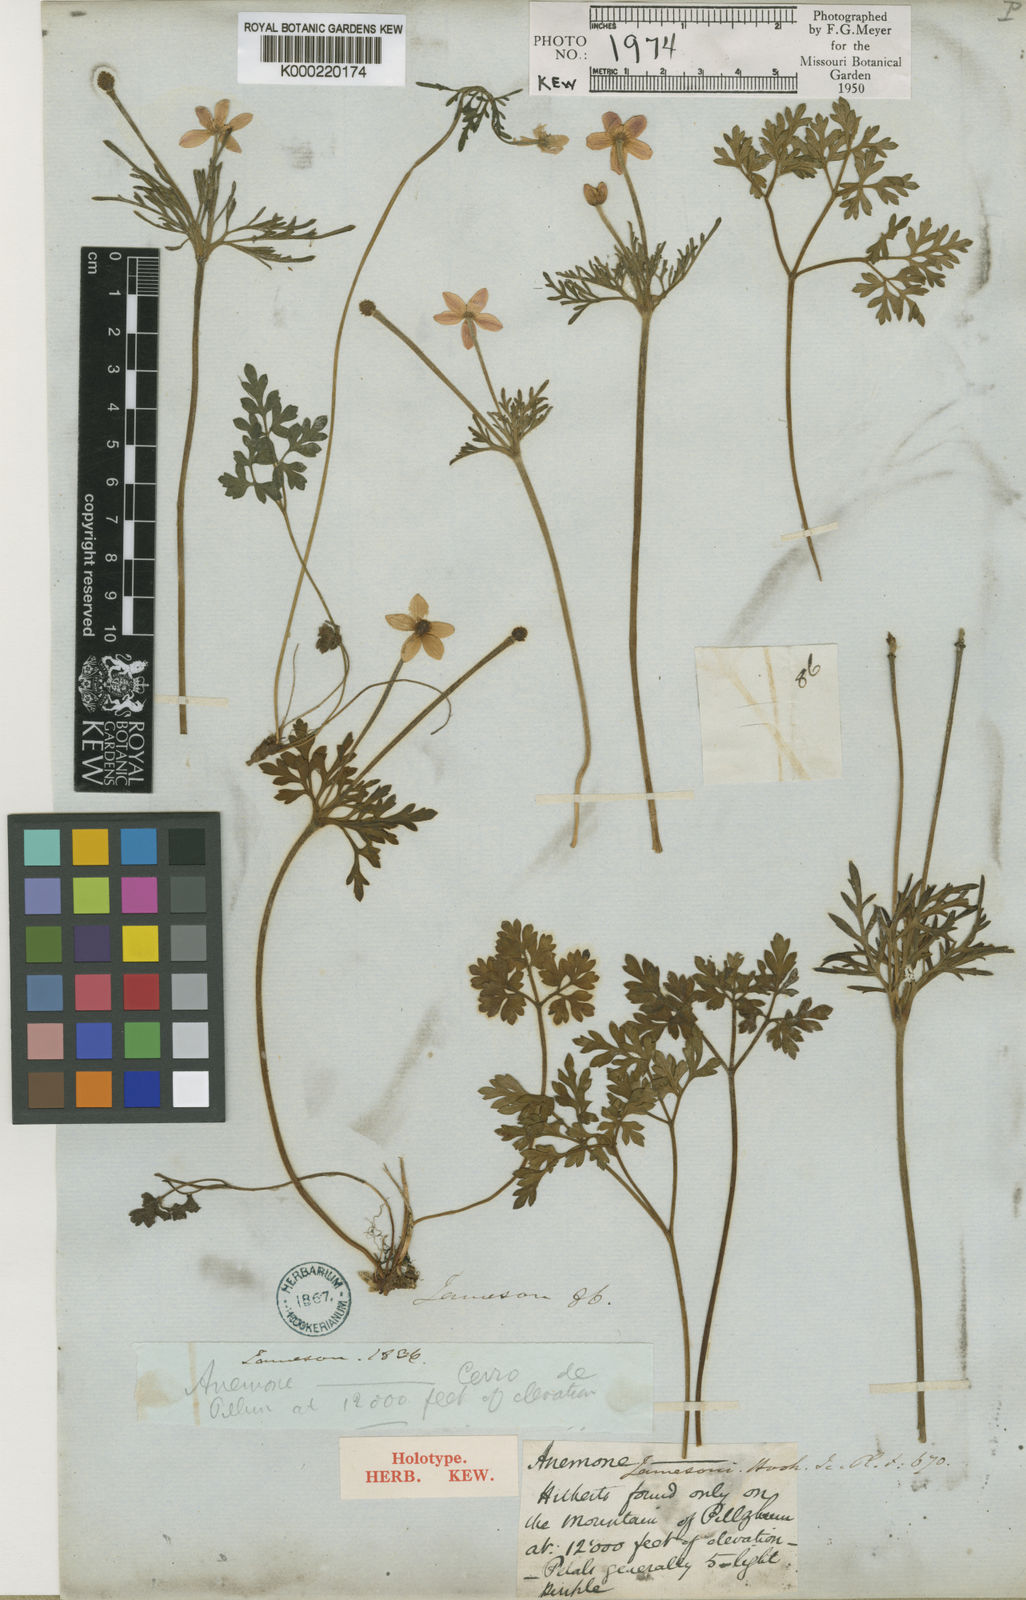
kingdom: Plantae
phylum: Tracheophyta
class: Magnoliopsida
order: Ranunculales
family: Ranunculaceae
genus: Anemone
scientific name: Anemone decapetala
